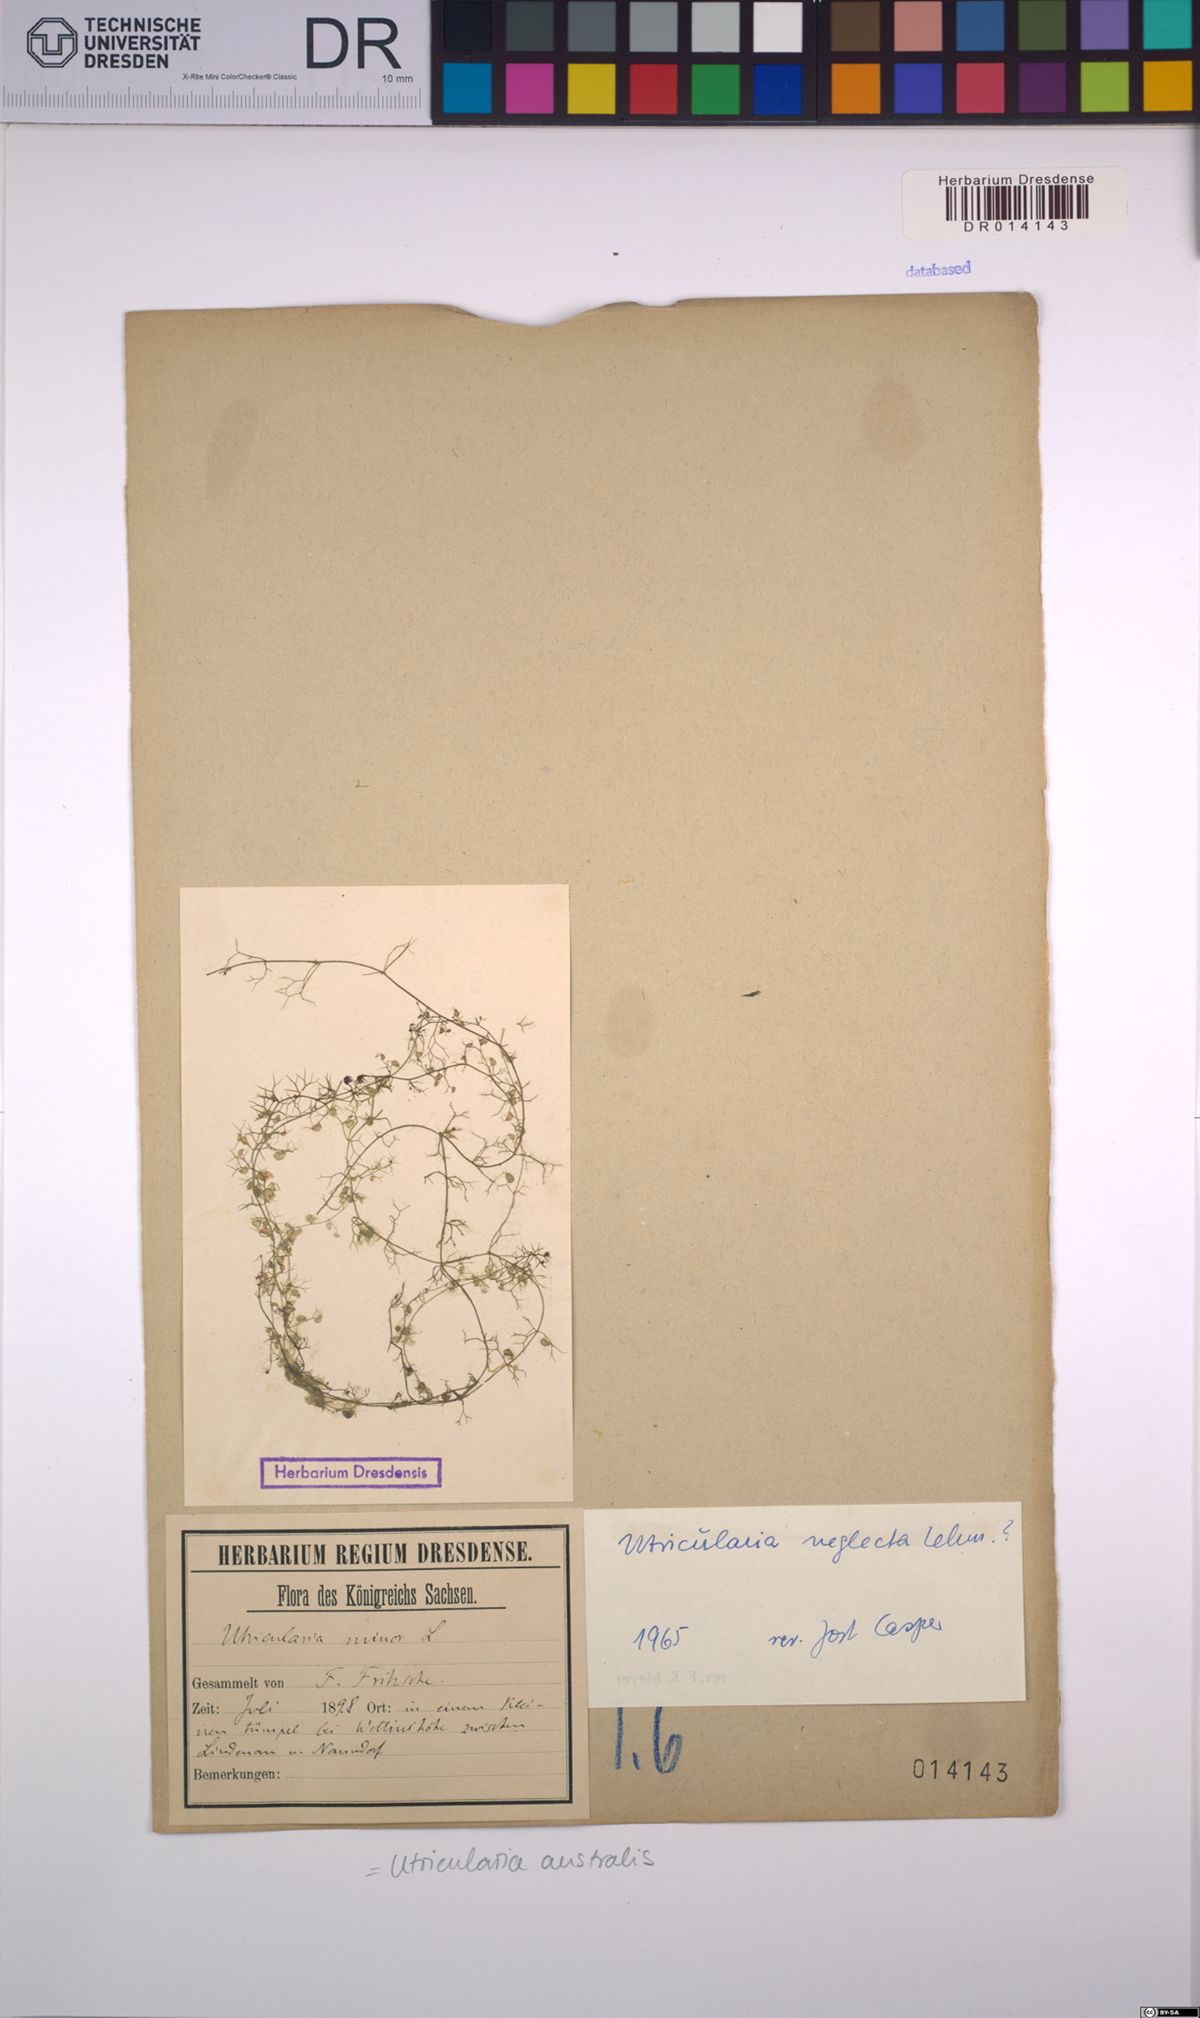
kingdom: Plantae
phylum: Tracheophyta
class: Magnoliopsida
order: Lamiales
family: Lentibulariaceae
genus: Utricularia
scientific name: Utricularia australis
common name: Bladderwort
